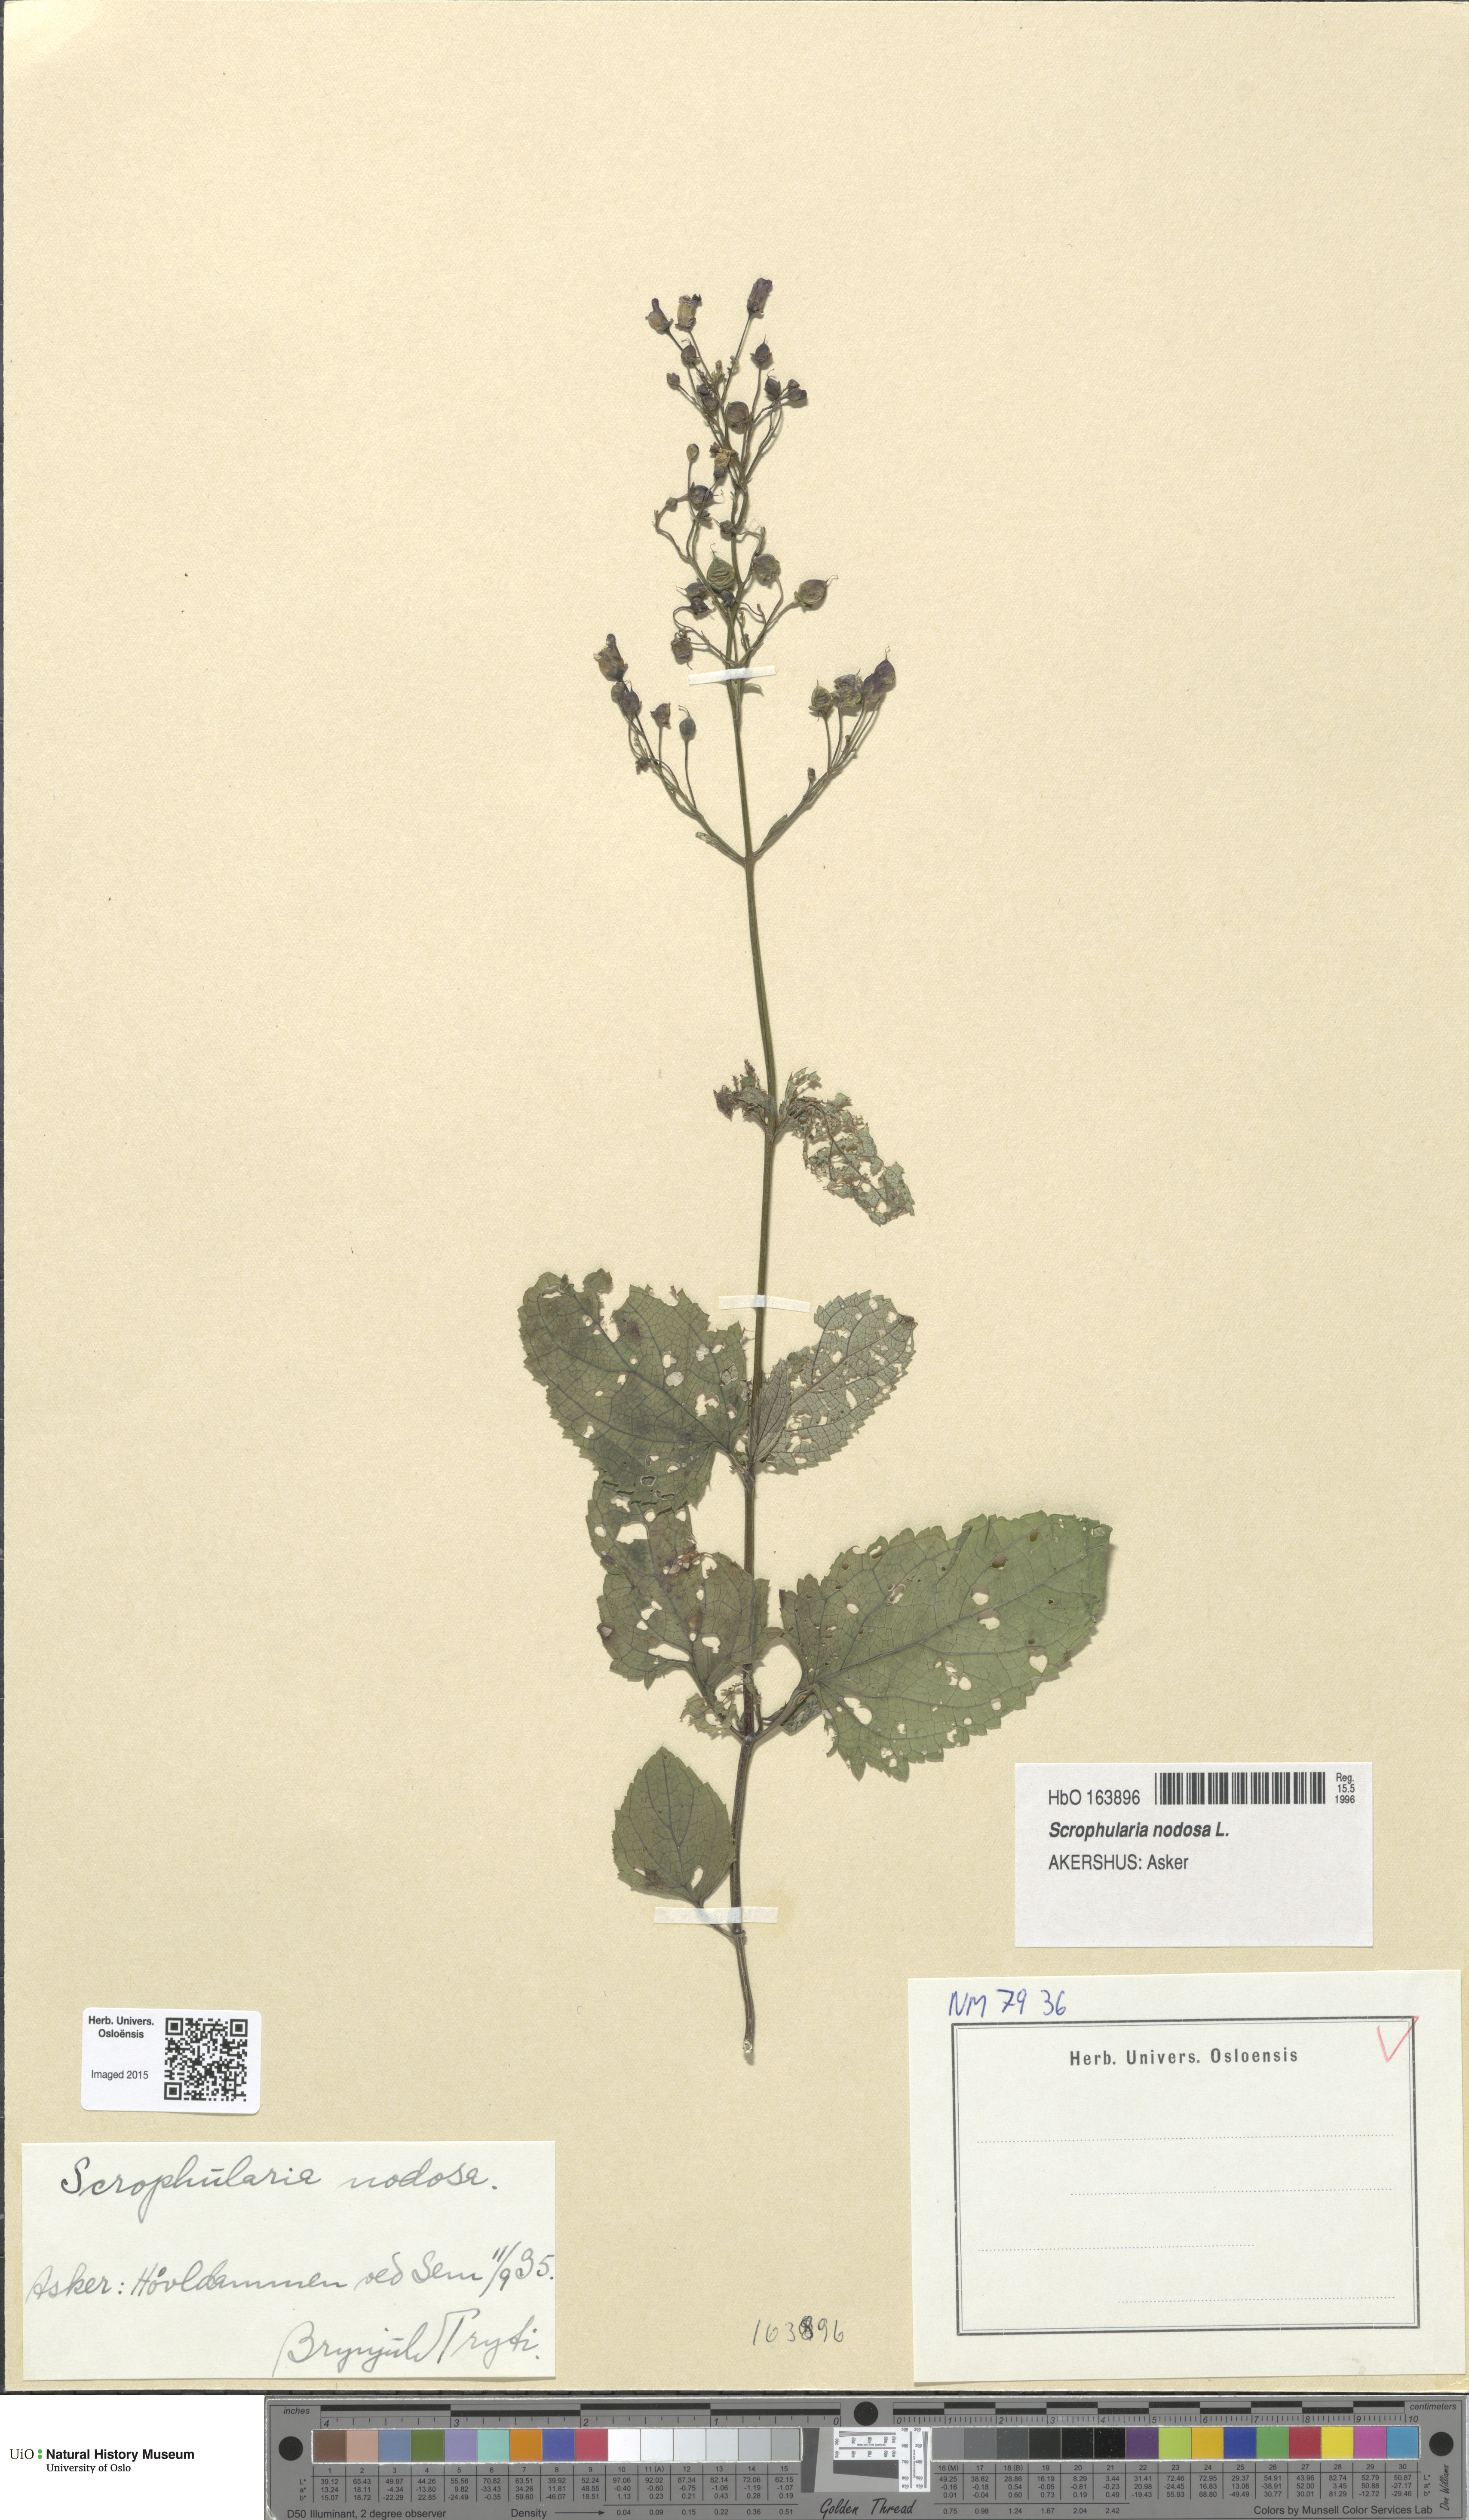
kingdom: Plantae
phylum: Tracheophyta
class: Magnoliopsida
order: Lamiales
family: Scrophulariaceae
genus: Scrophularia
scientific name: Scrophularia nodosa
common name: Common figwort
